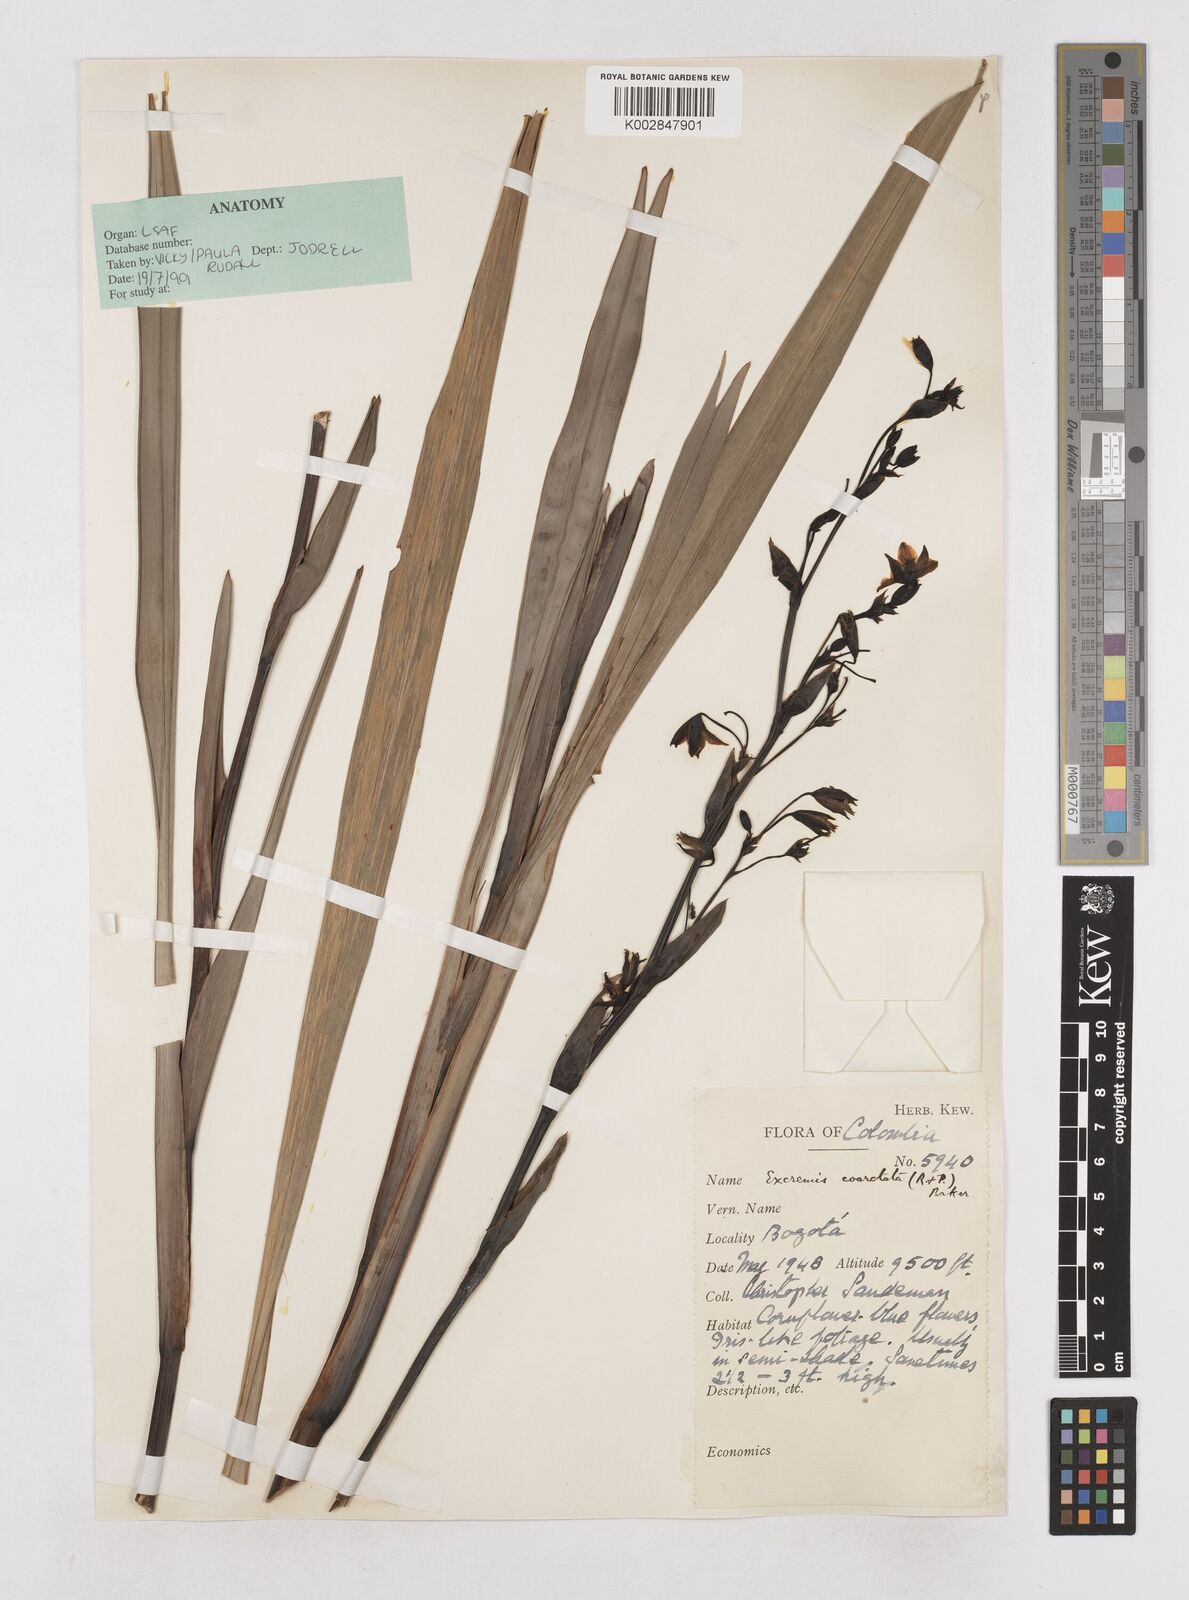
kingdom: Plantae
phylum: Tracheophyta
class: Liliopsida
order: Asparagales
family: Asphodelaceae
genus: Excremis
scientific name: Excremis coarctata
